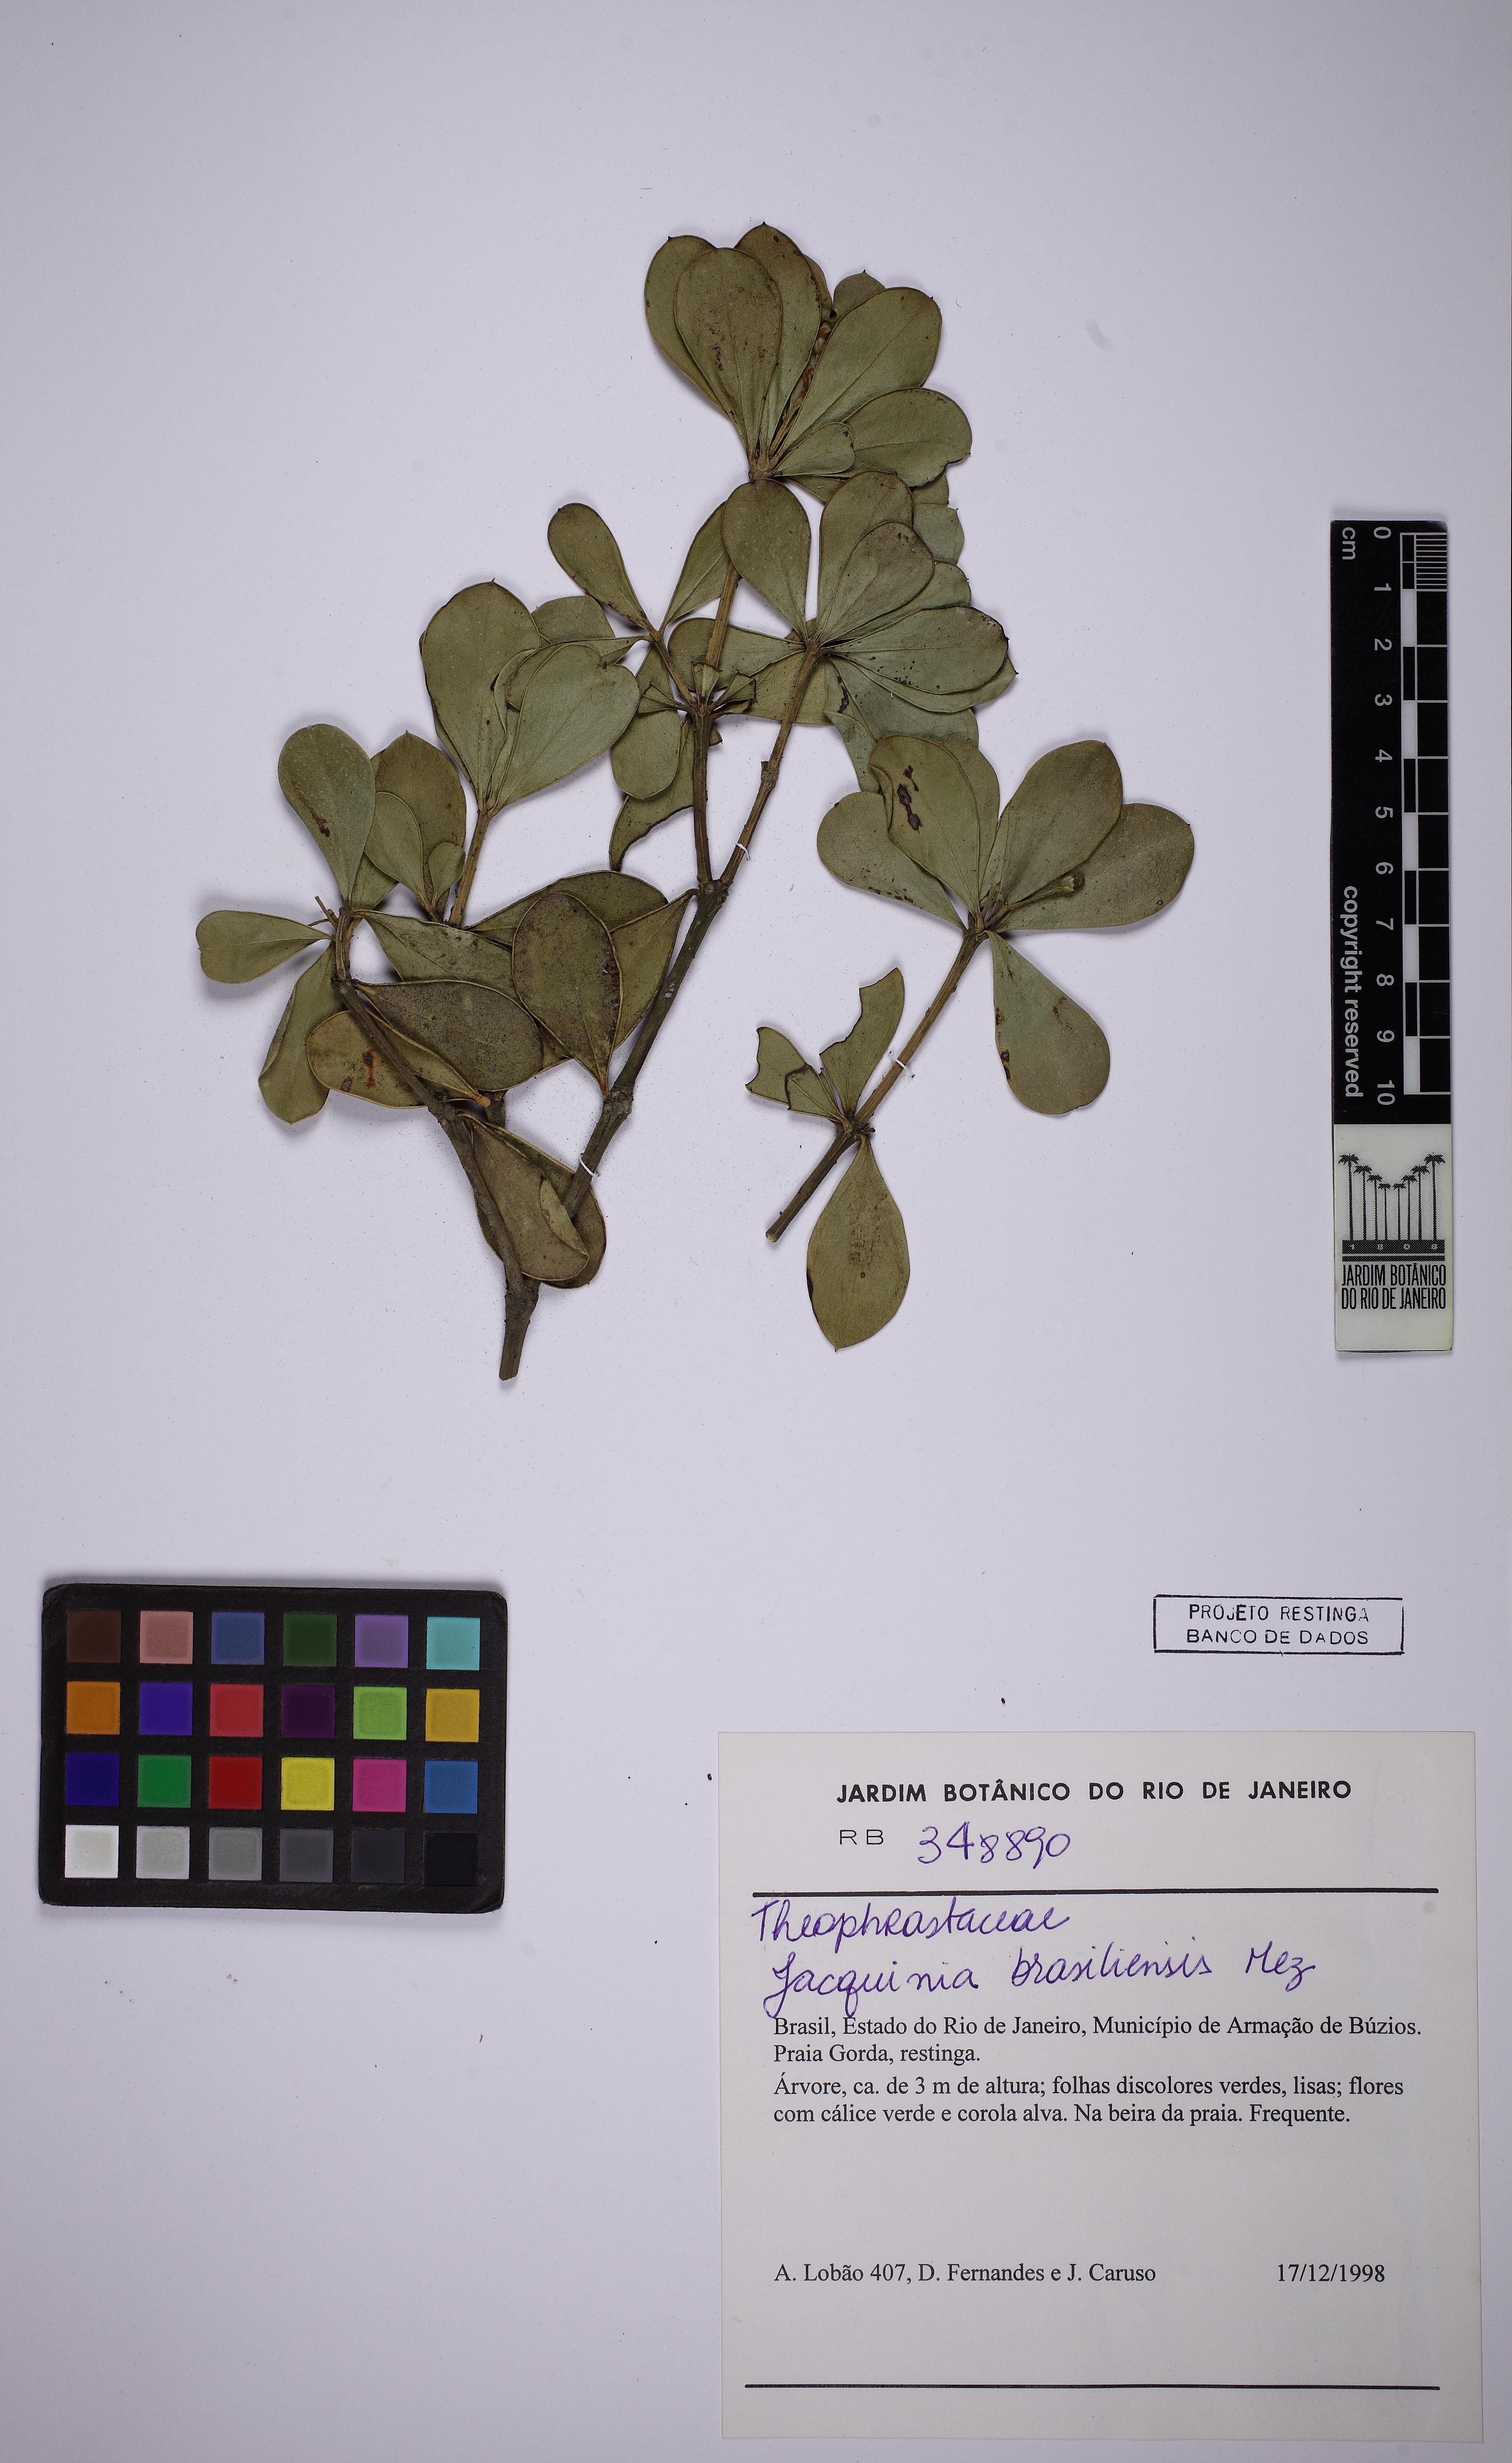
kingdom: Plantae
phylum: Tracheophyta
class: Magnoliopsida
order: Ericales
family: Primulaceae
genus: Jacquinia
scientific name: Jacquinia armillaris
